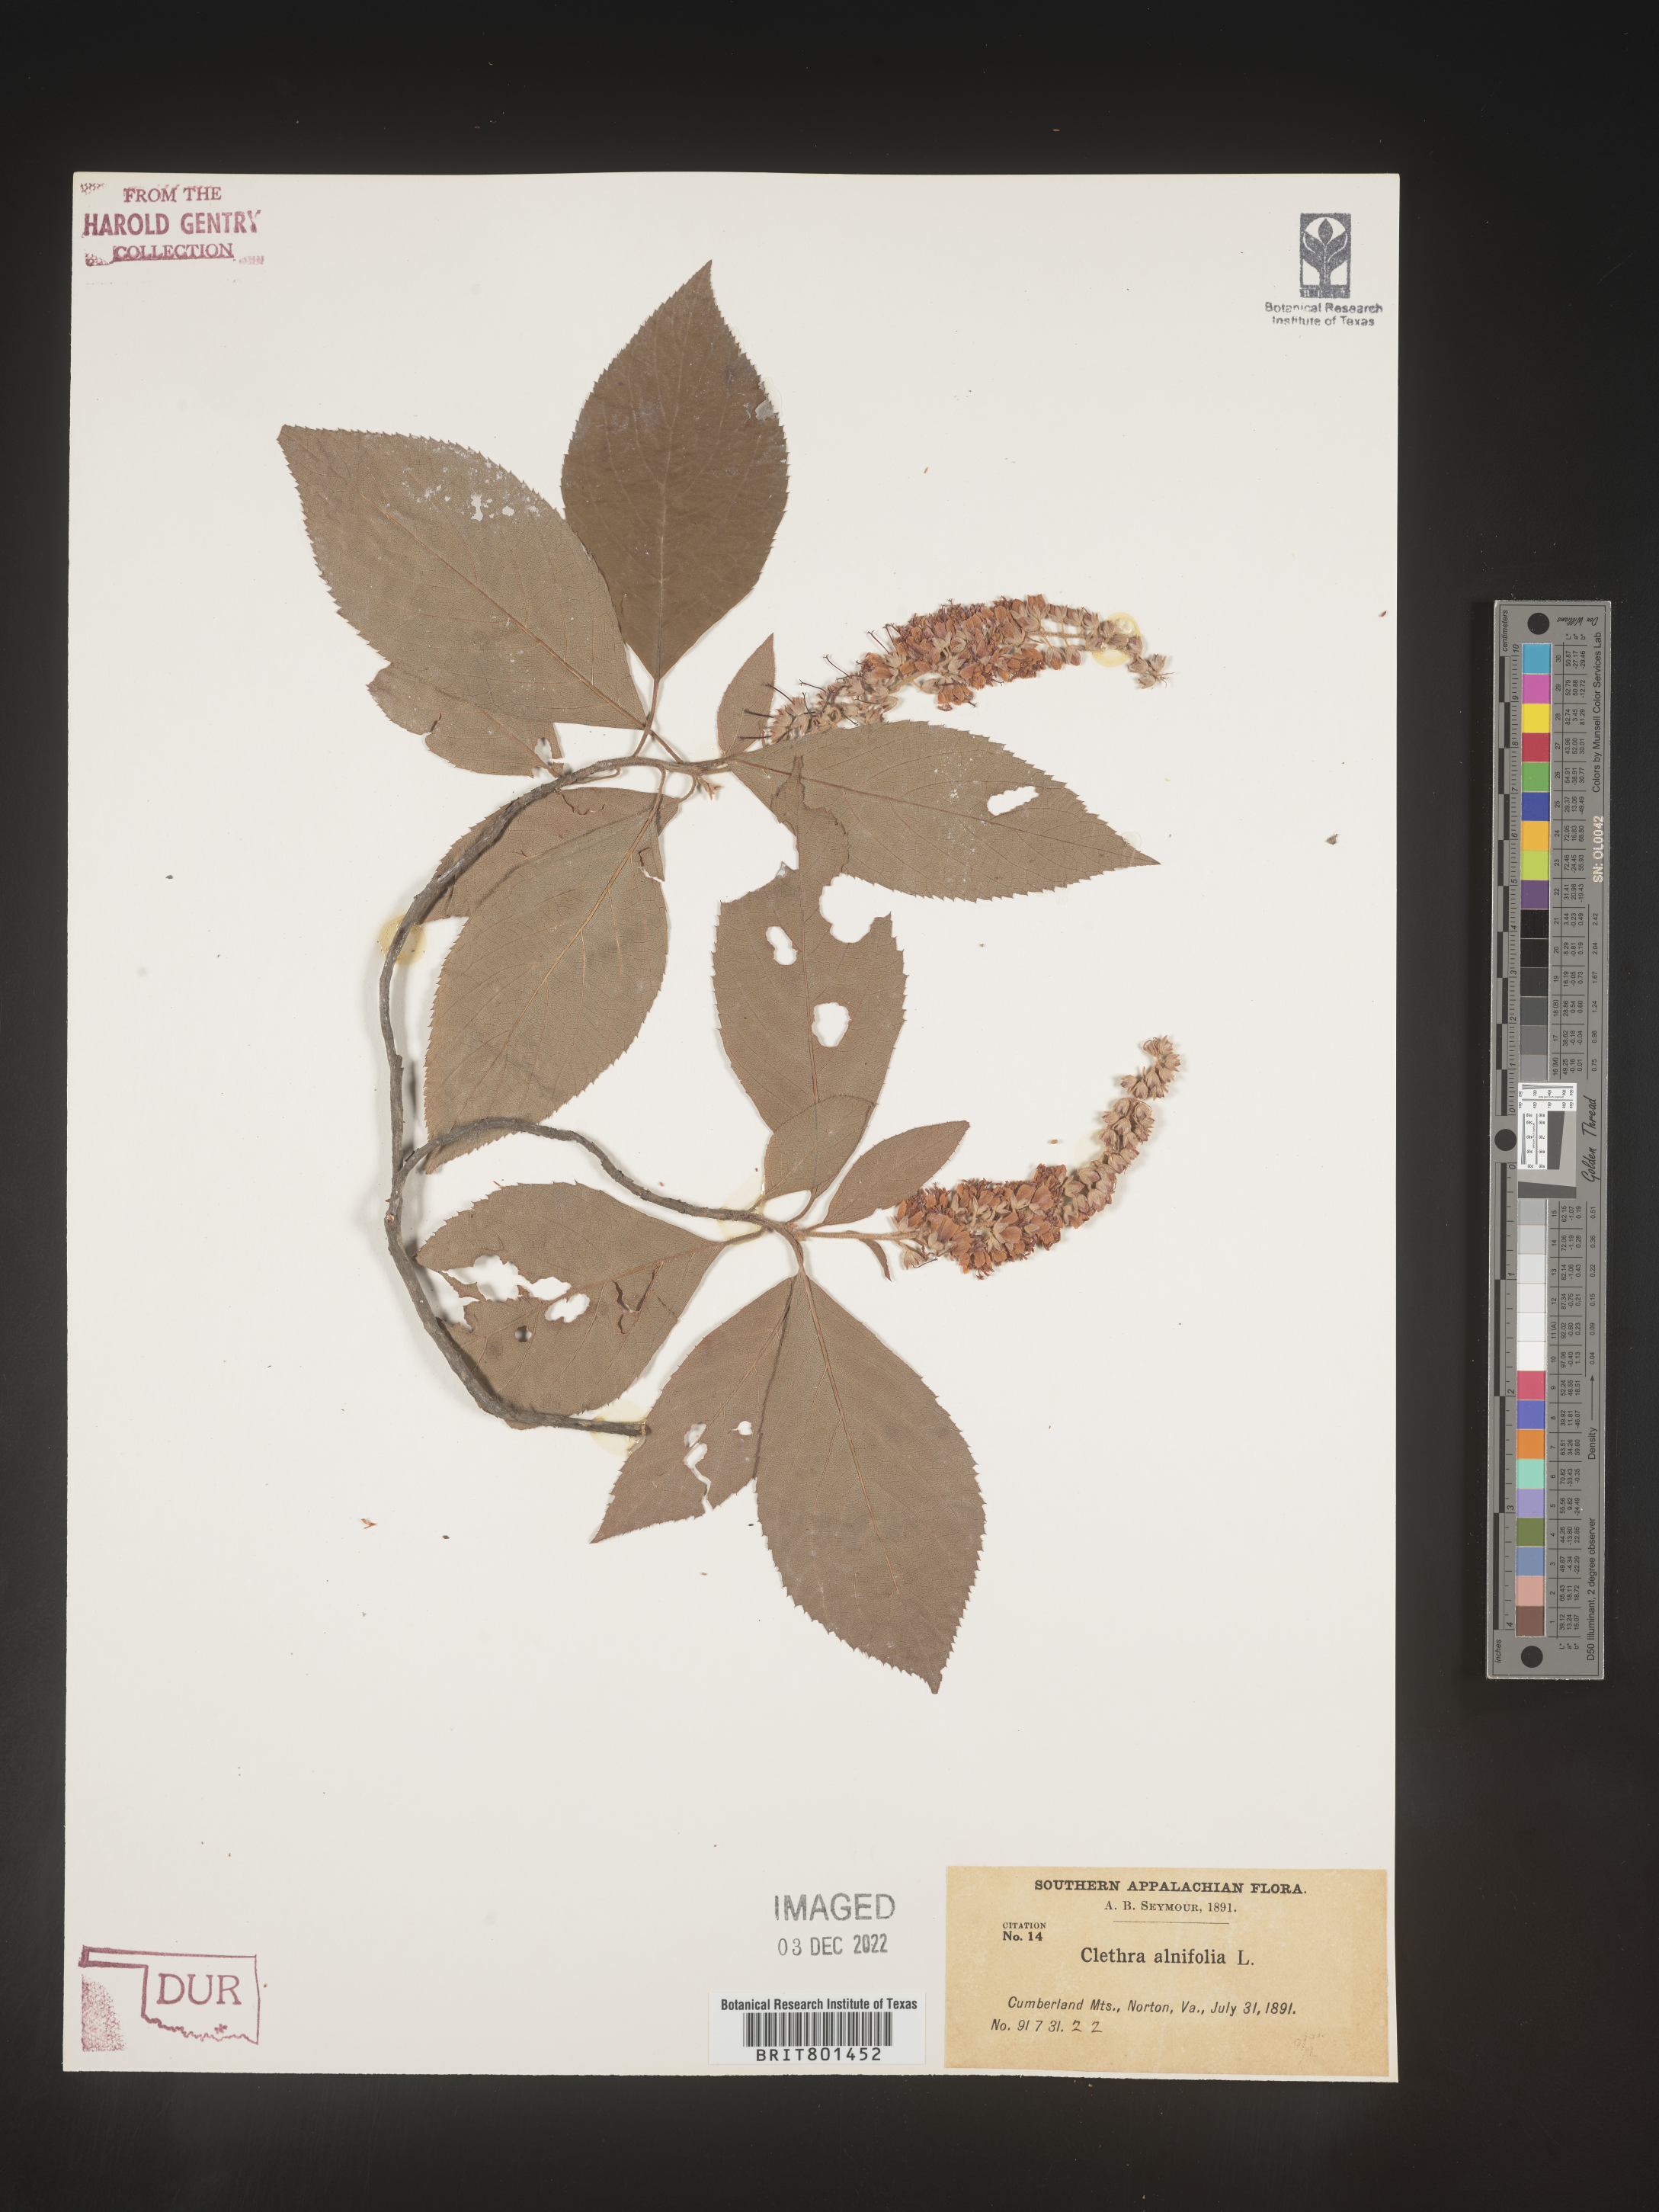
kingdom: Plantae
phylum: Tracheophyta
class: Magnoliopsida
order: Ericales
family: Clethraceae
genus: Clethra
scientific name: Clethra alnifolia
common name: Sweet pepperbush
